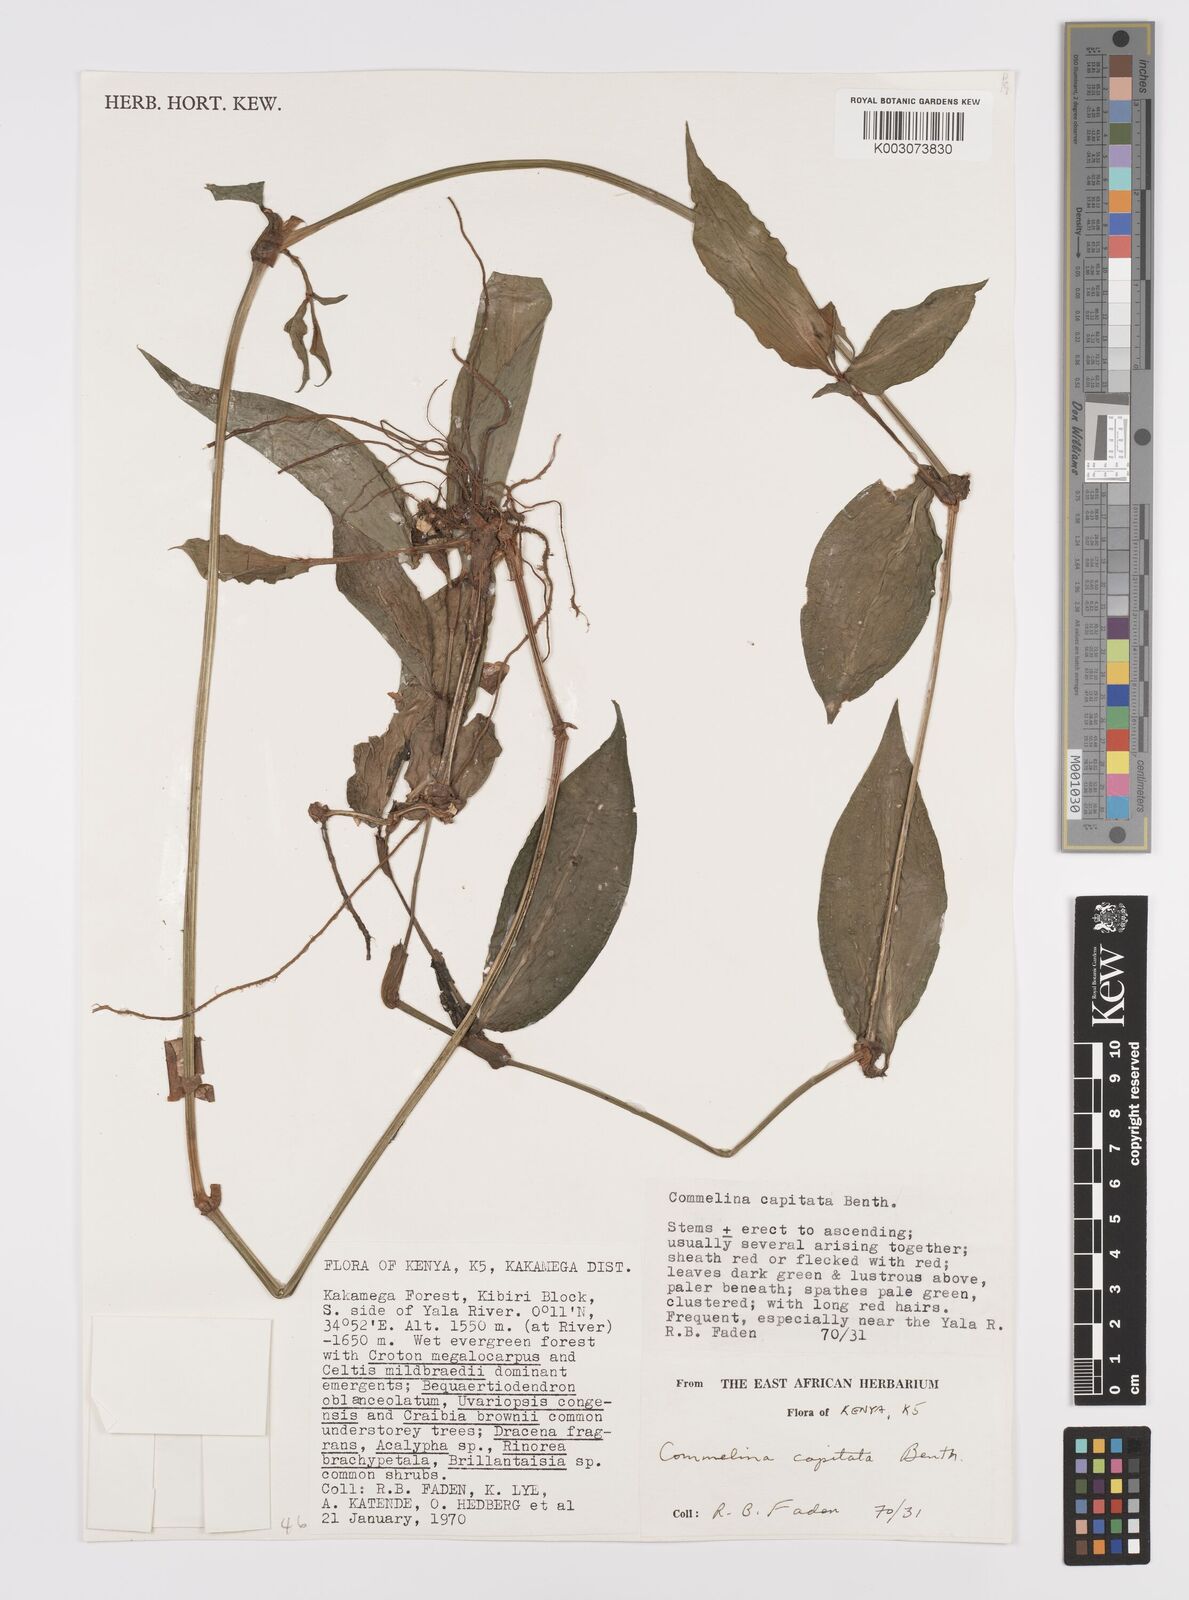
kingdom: Plantae
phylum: Tracheophyta
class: Liliopsida
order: Commelinales
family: Commelinaceae
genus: Commelina
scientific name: Commelina capitata
